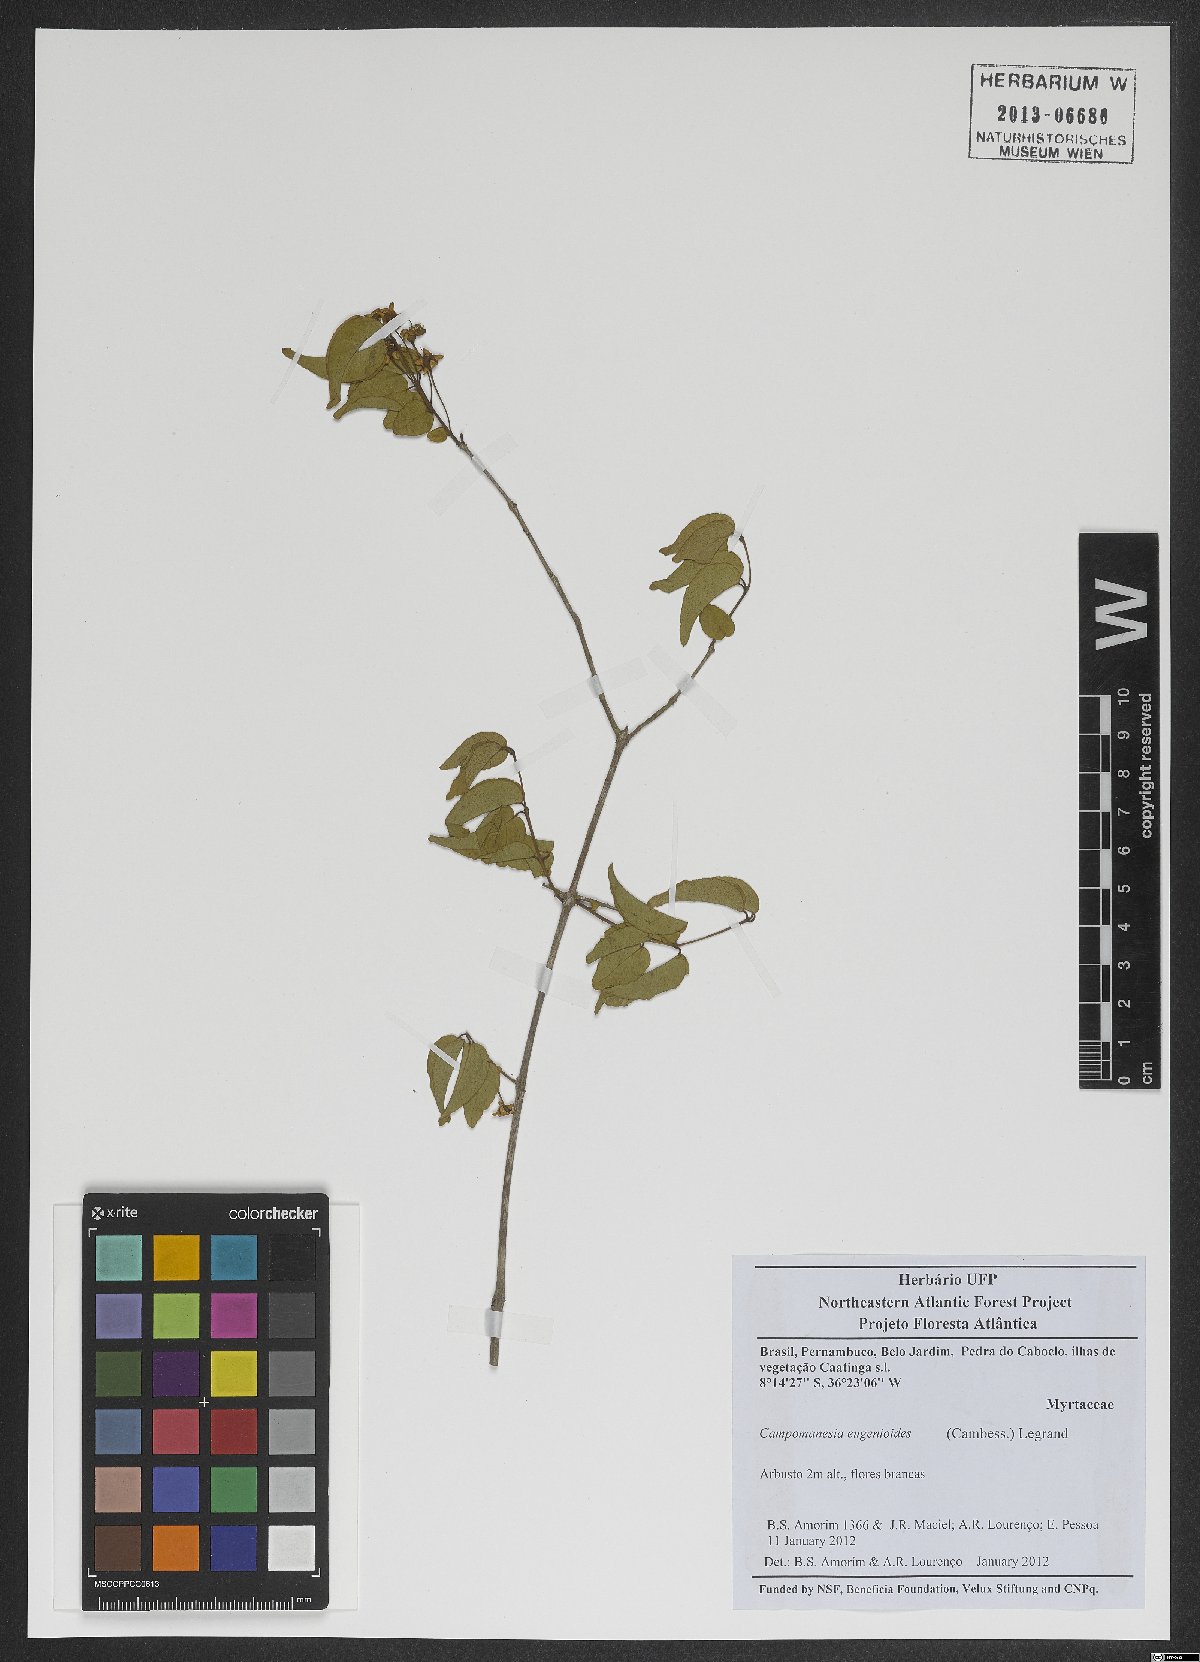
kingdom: Plantae
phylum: Tracheophyta
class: Magnoliopsida
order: Myrtales
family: Myrtaceae
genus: Campomanesia
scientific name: Campomanesia eugenioides
